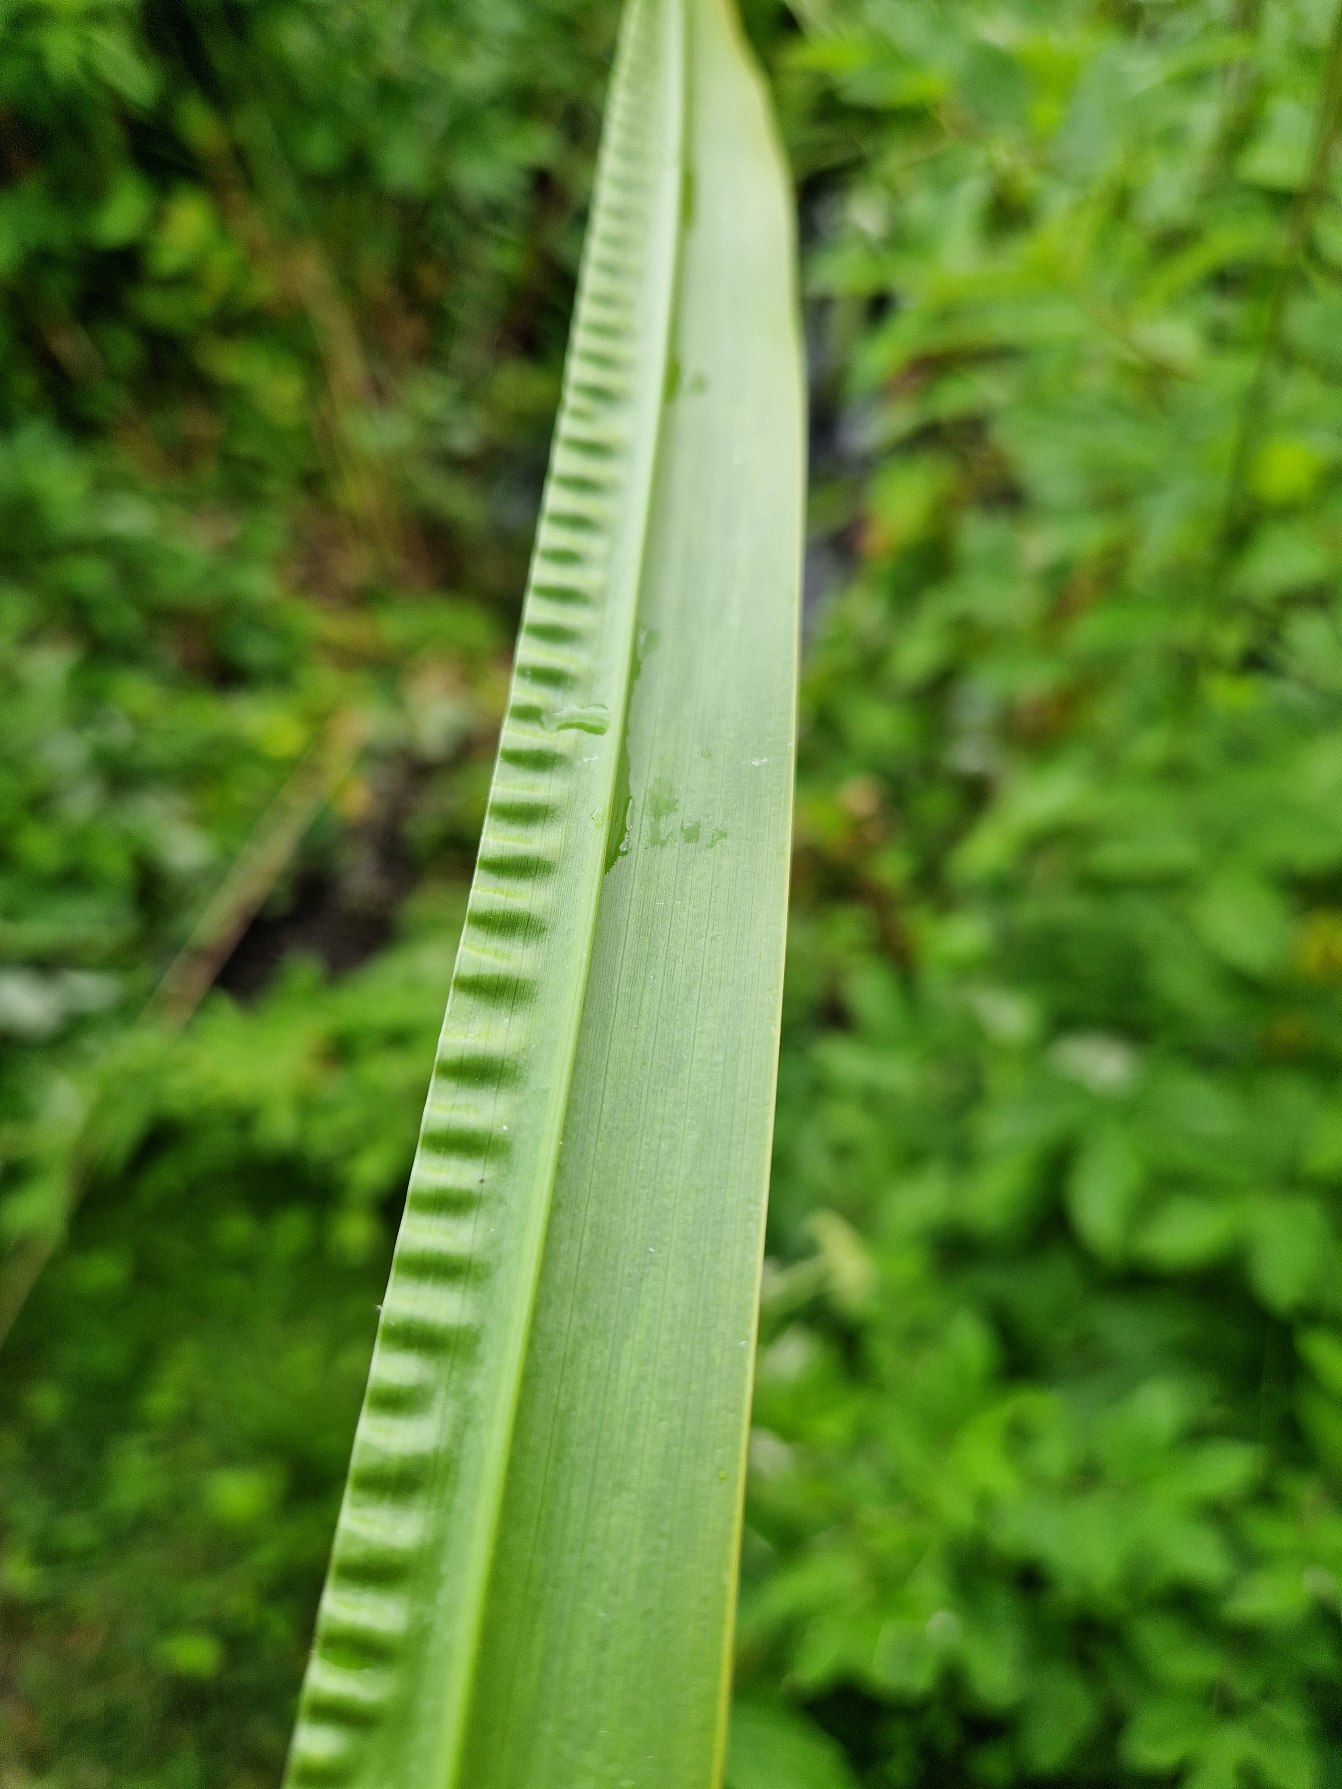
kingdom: Plantae
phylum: Tracheophyta
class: Liliopsida
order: Acorales
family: Acoraceae
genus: Acorus
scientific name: Acorus calamus
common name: Kalmus
